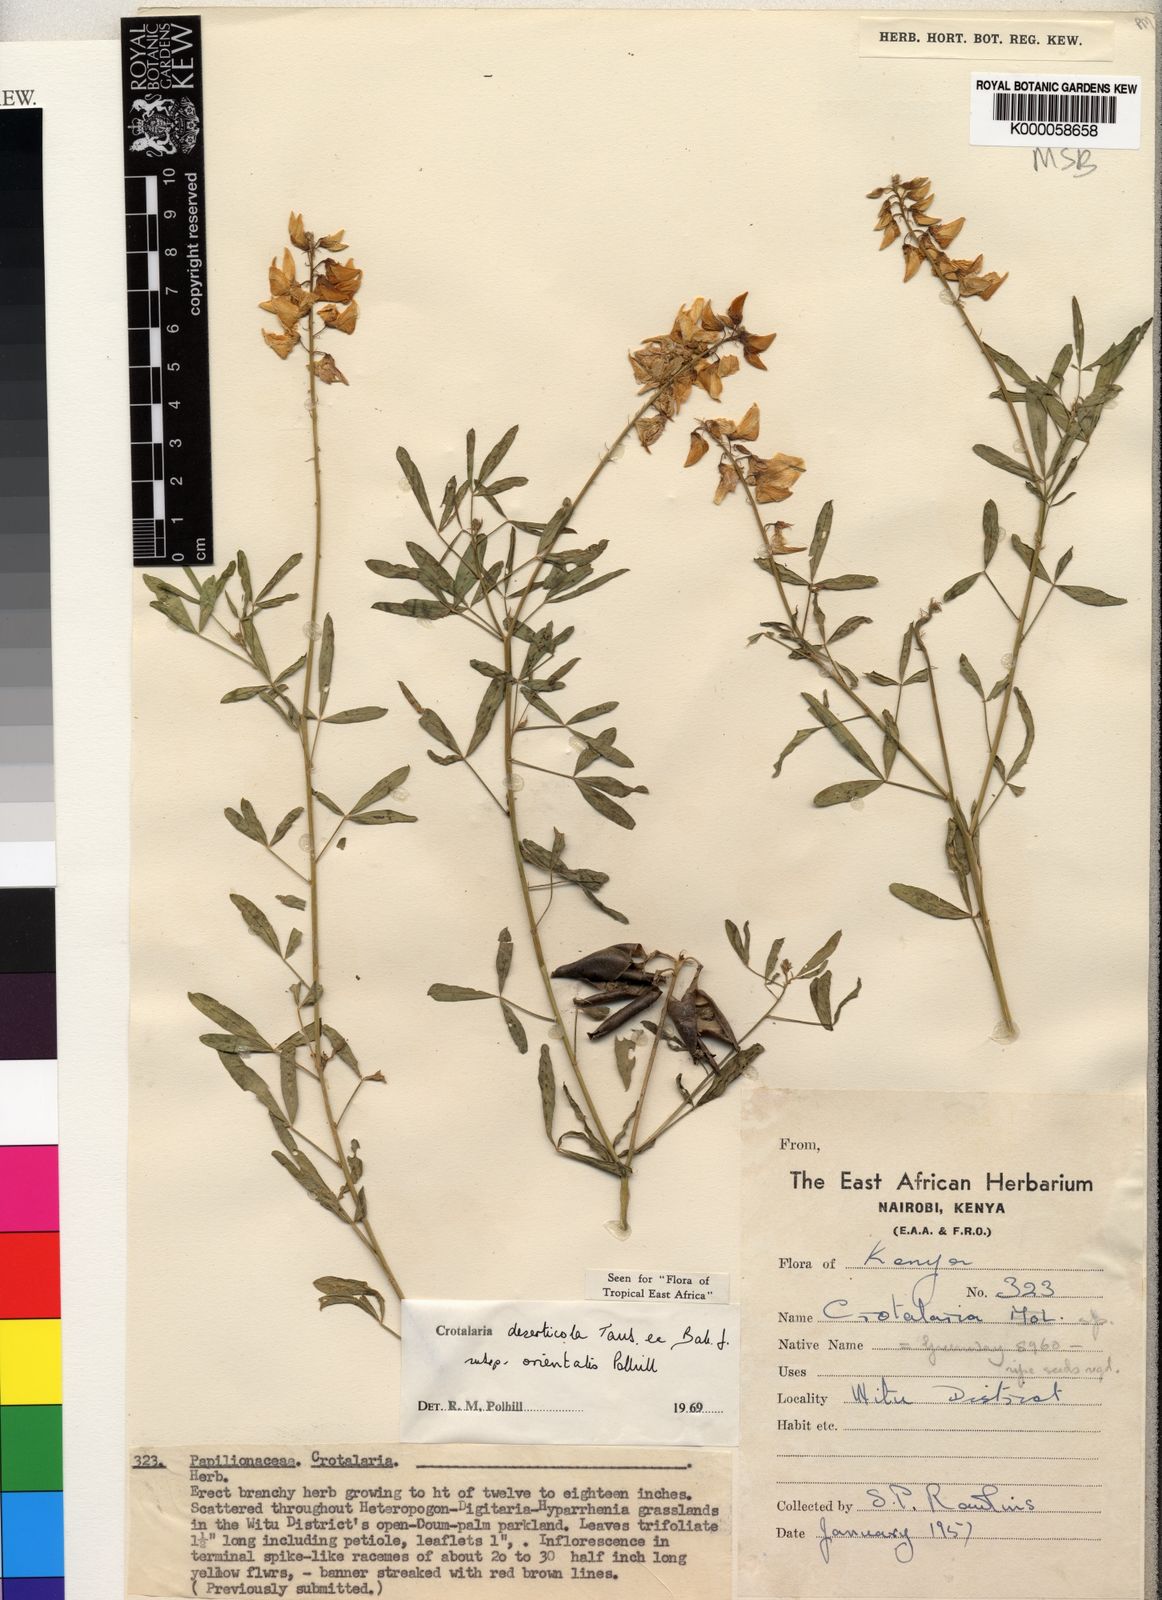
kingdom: Plantae
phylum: Tracheophyta
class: Magnoliopsida
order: Fabales
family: Fabaceae
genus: Crotalaria
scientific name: Crotalaria deserticola
